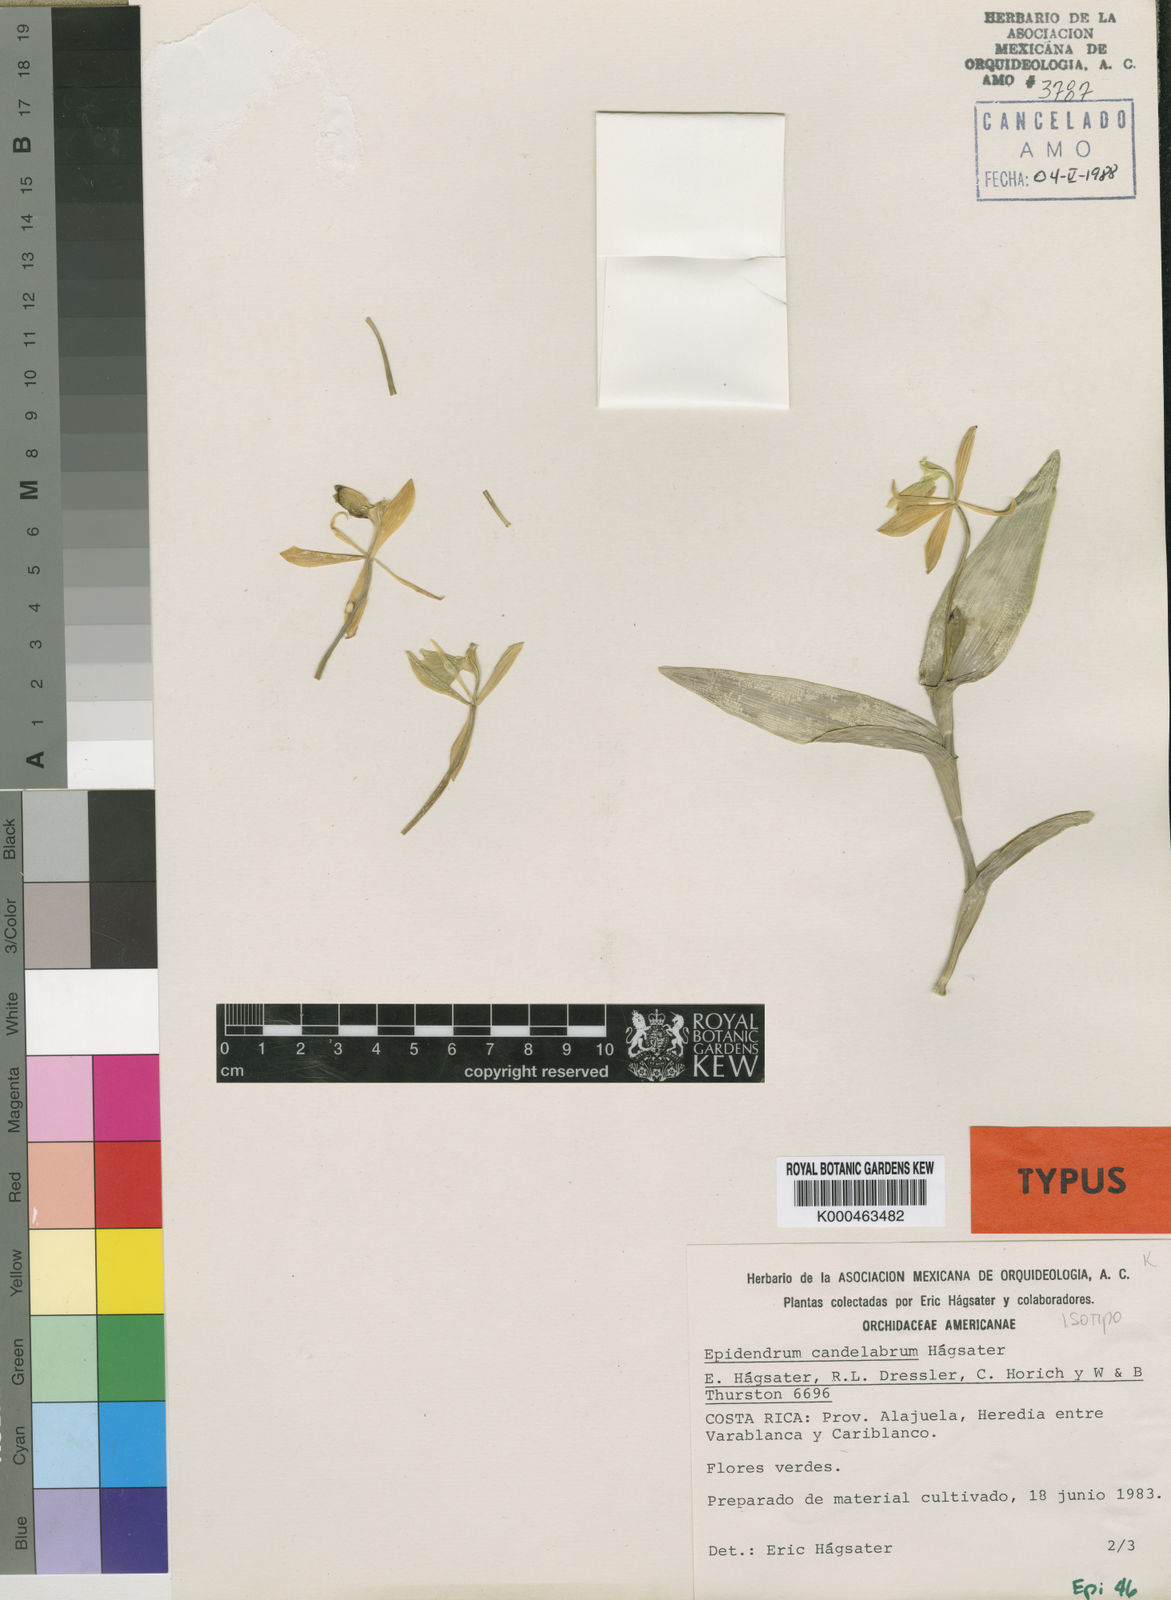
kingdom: Plantae
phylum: Tracheophyta
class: Liliopsida
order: Asparagales
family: Orchidaceae
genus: Epidendrum
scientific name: Epidendrum
